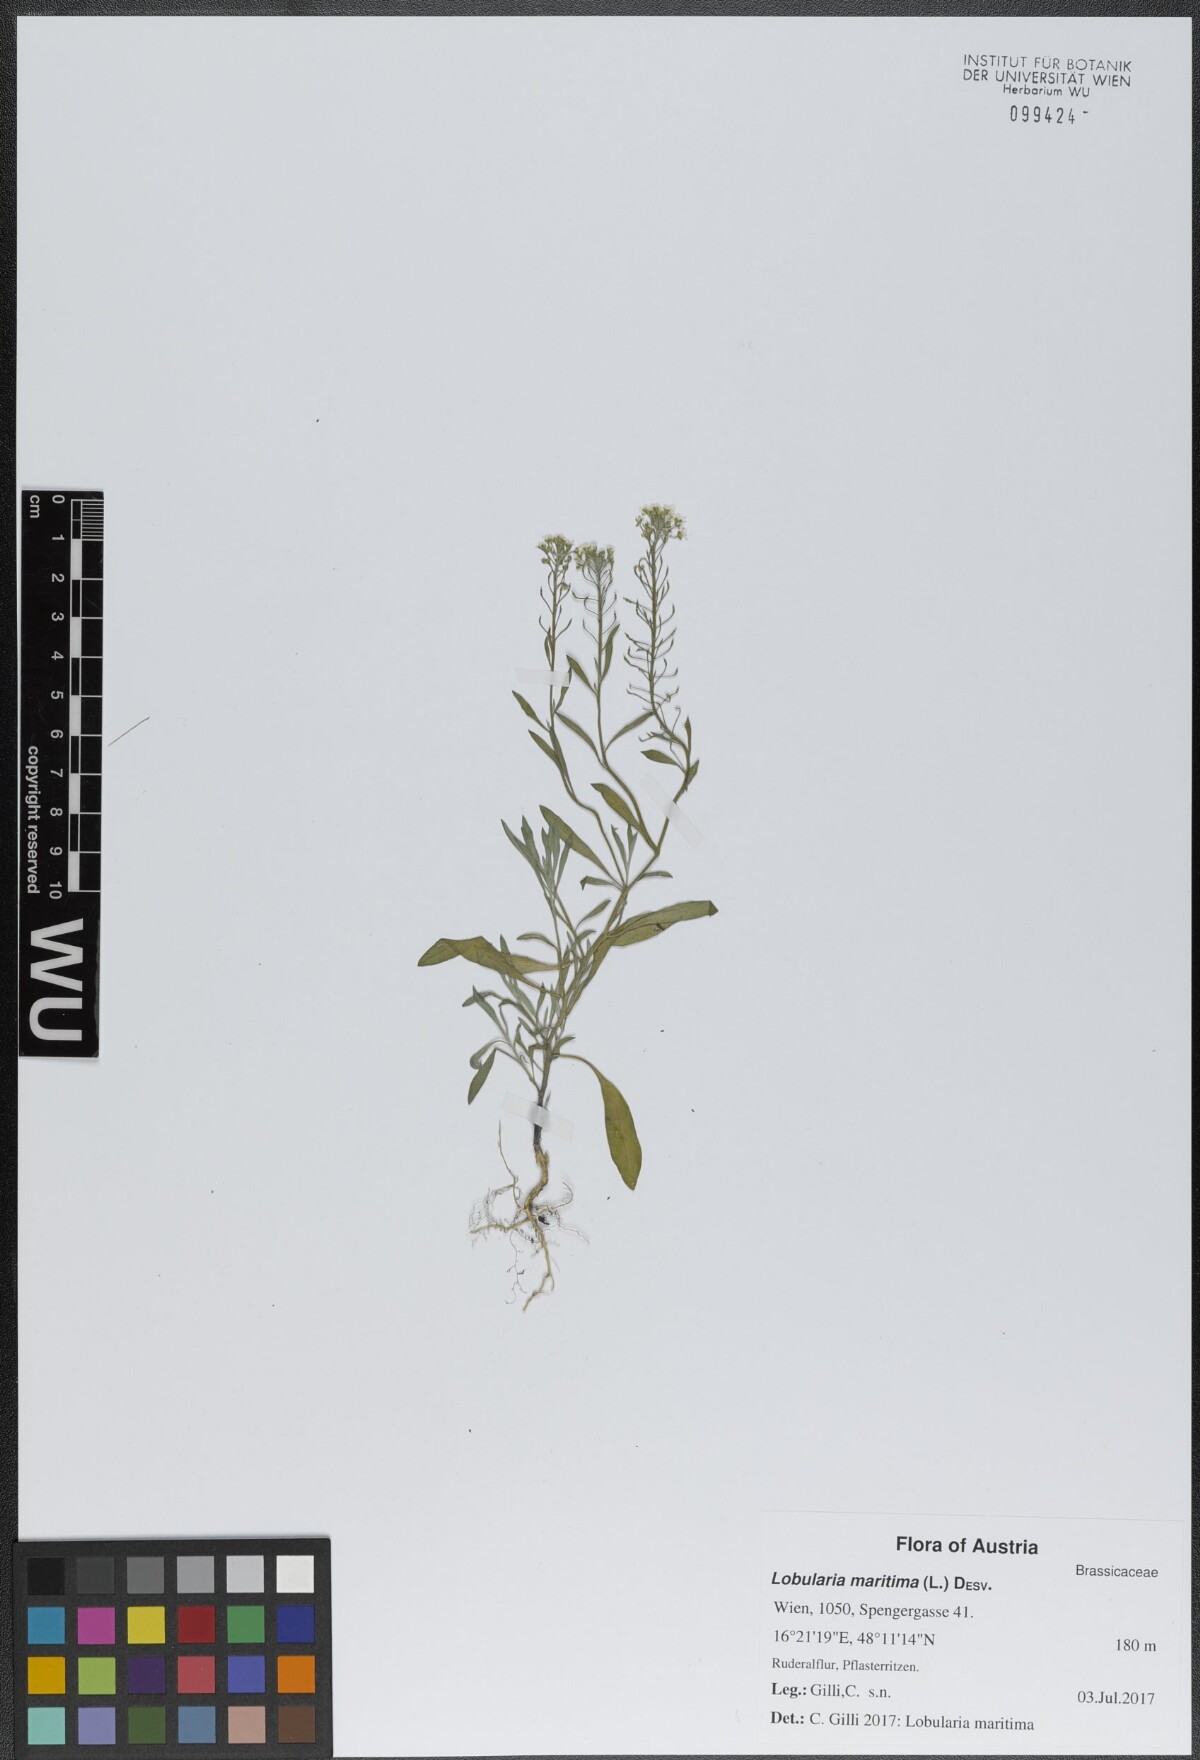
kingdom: Plantae
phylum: Tracheophyta
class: Magnoliopsida
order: Brassicales
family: Brassicaceae
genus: Lobularia
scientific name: Lobularia maritima
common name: Sweet alison
